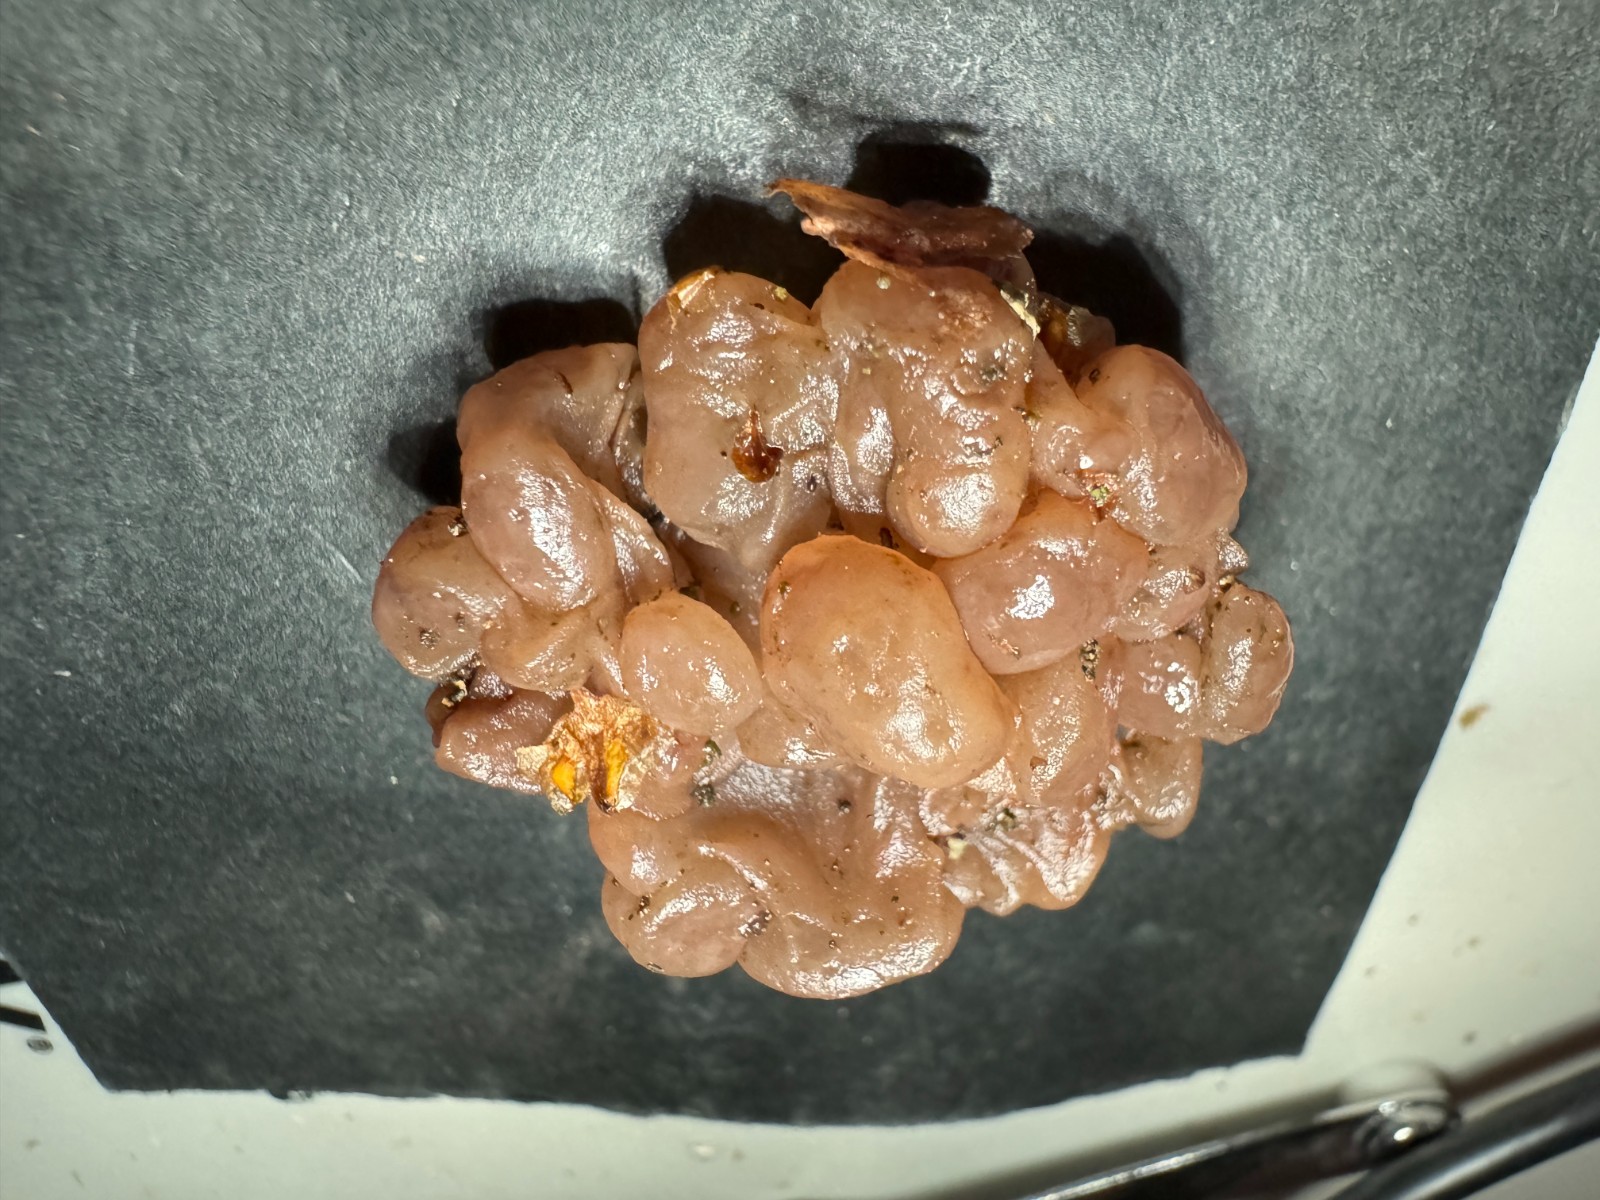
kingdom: Fungi
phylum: Ascomycota
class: Leotiomycetes
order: Helotiales
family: Gelatinodiscaceae
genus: Ascotremella
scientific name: Ascotremella faginea
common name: hjerne-bævreskive
